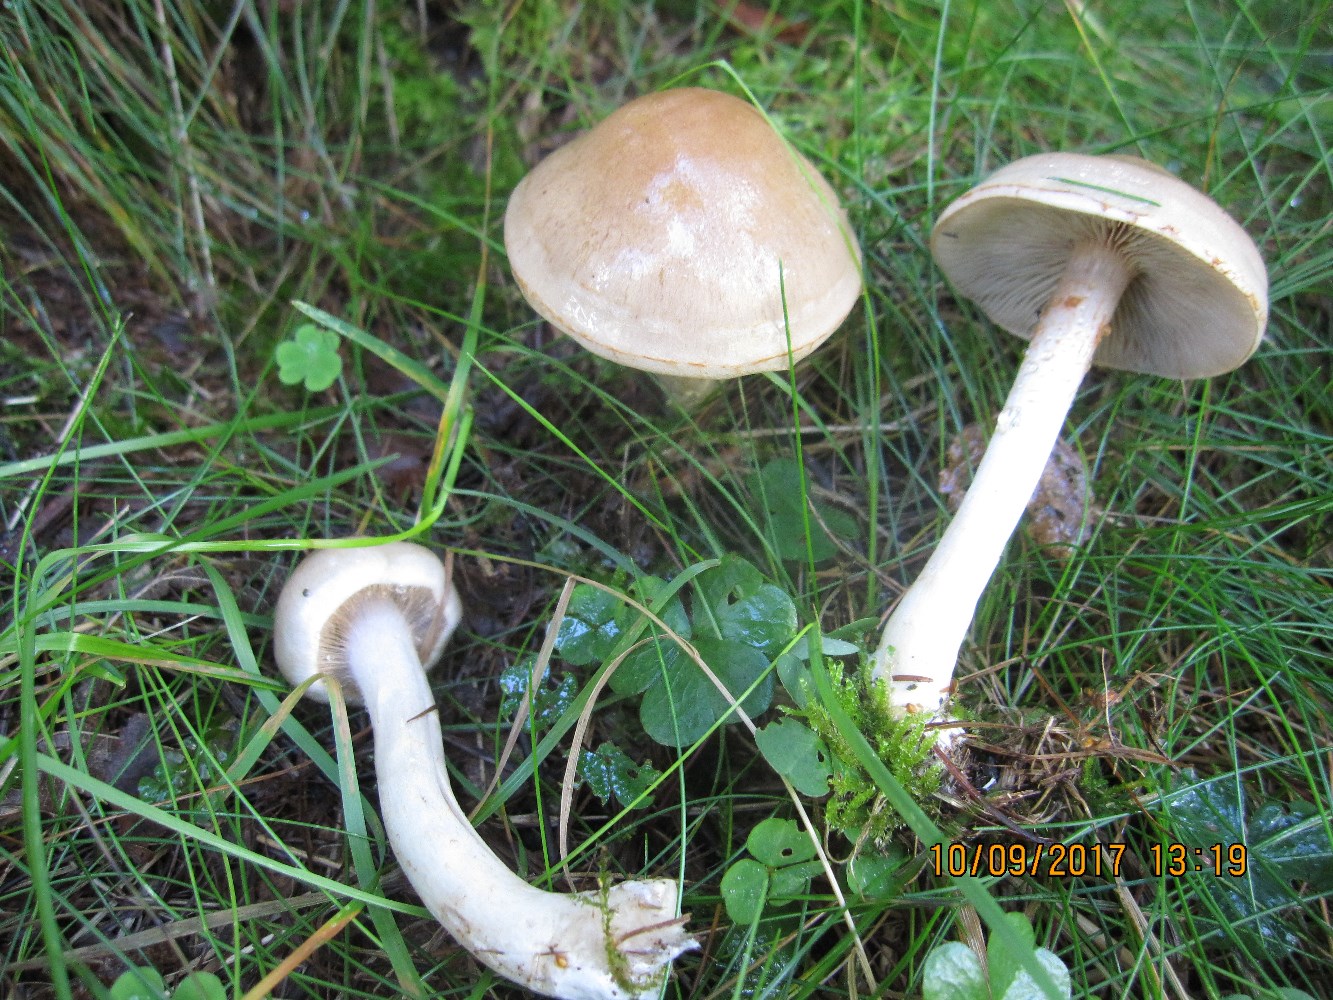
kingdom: Fungi
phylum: Basidiomycota
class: Agaricomycetes
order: Agaricales
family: Cortinariaceae
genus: Cortinarius
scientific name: Cortinarius tabularis
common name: lerbrun slørhat
